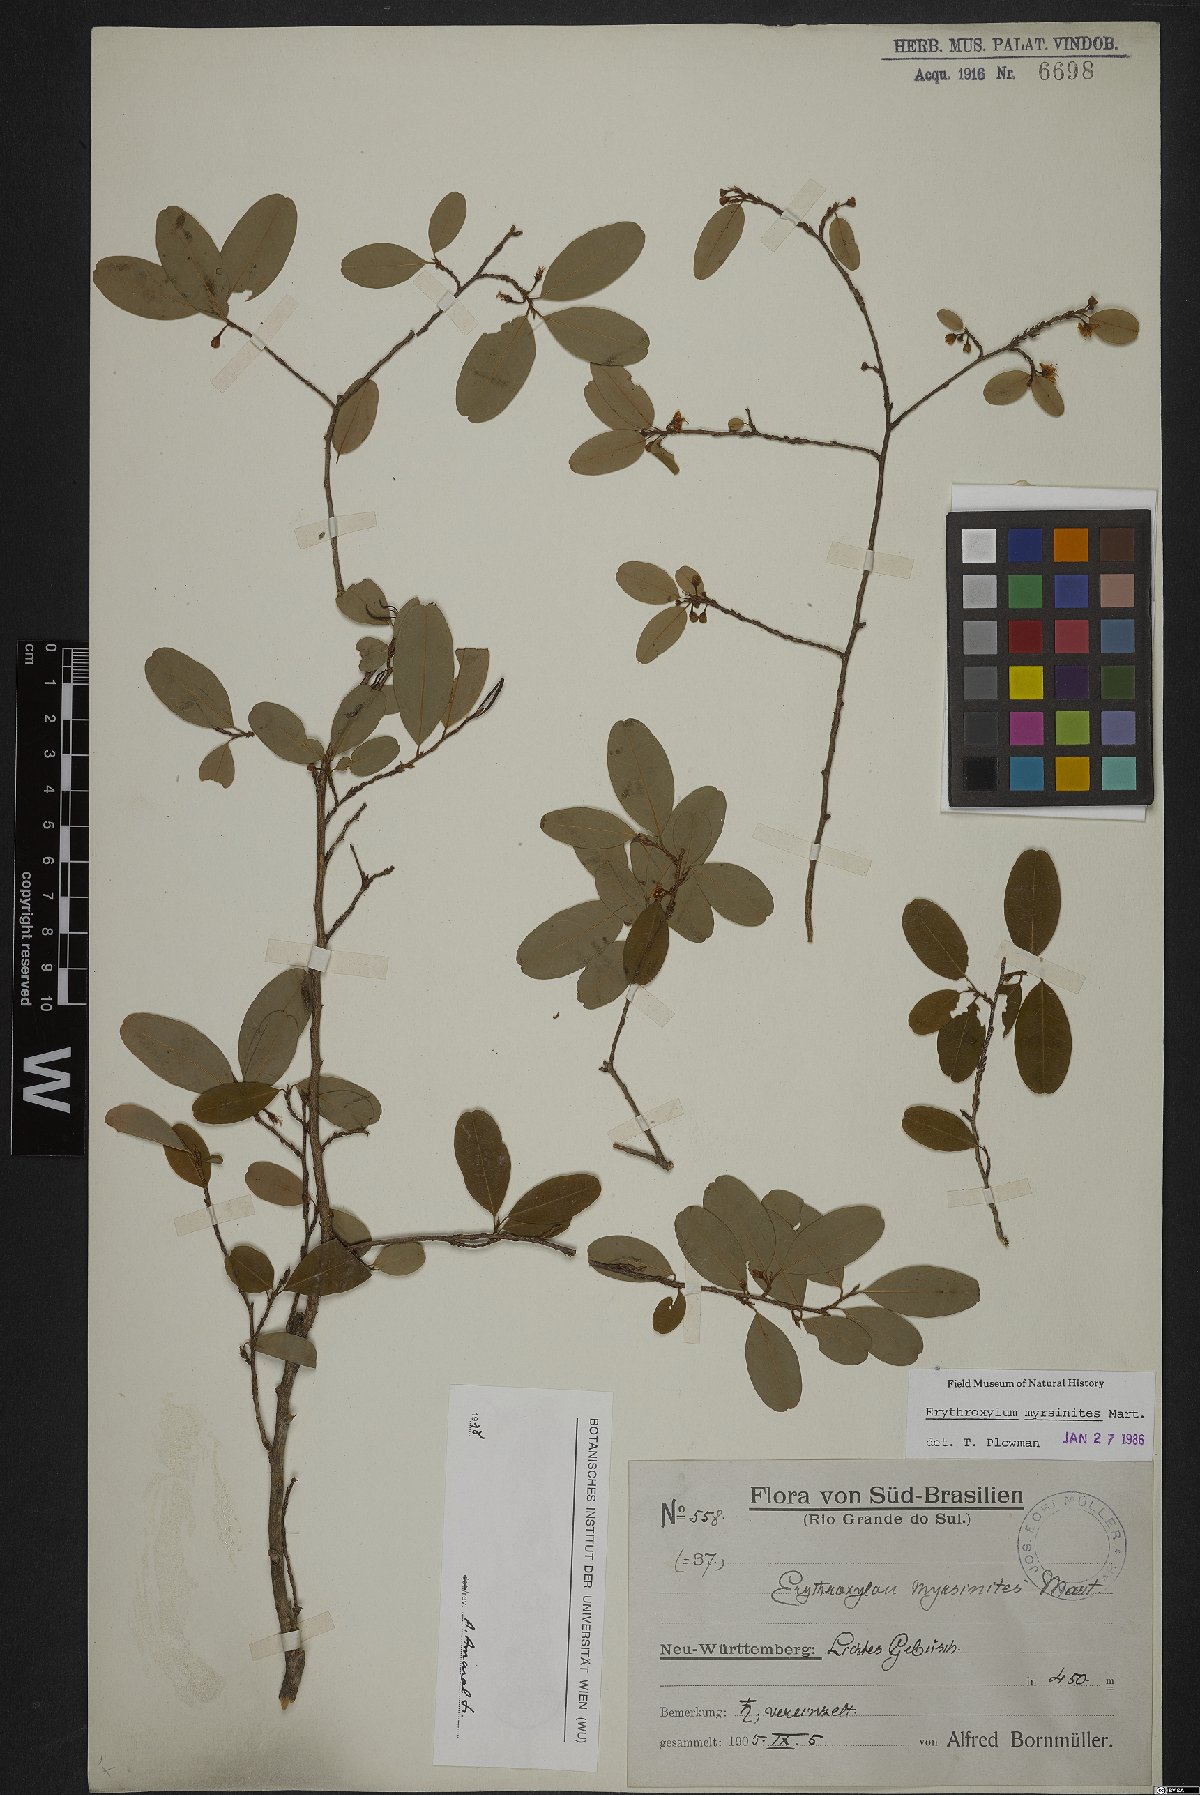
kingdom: Plantae
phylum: Tracheophyta
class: Magnoliopsida
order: Malpighiales
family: Erythroxylaceae
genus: Erythroxylum
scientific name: Erythroxylum myrsinites
